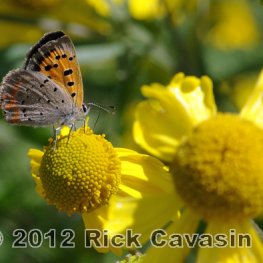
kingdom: Animalia
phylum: Arthropoda
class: Insecta
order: Lepidoptera
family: Lycaenidae
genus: Lycaena
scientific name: Lycaena phlaeas
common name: American Copper
